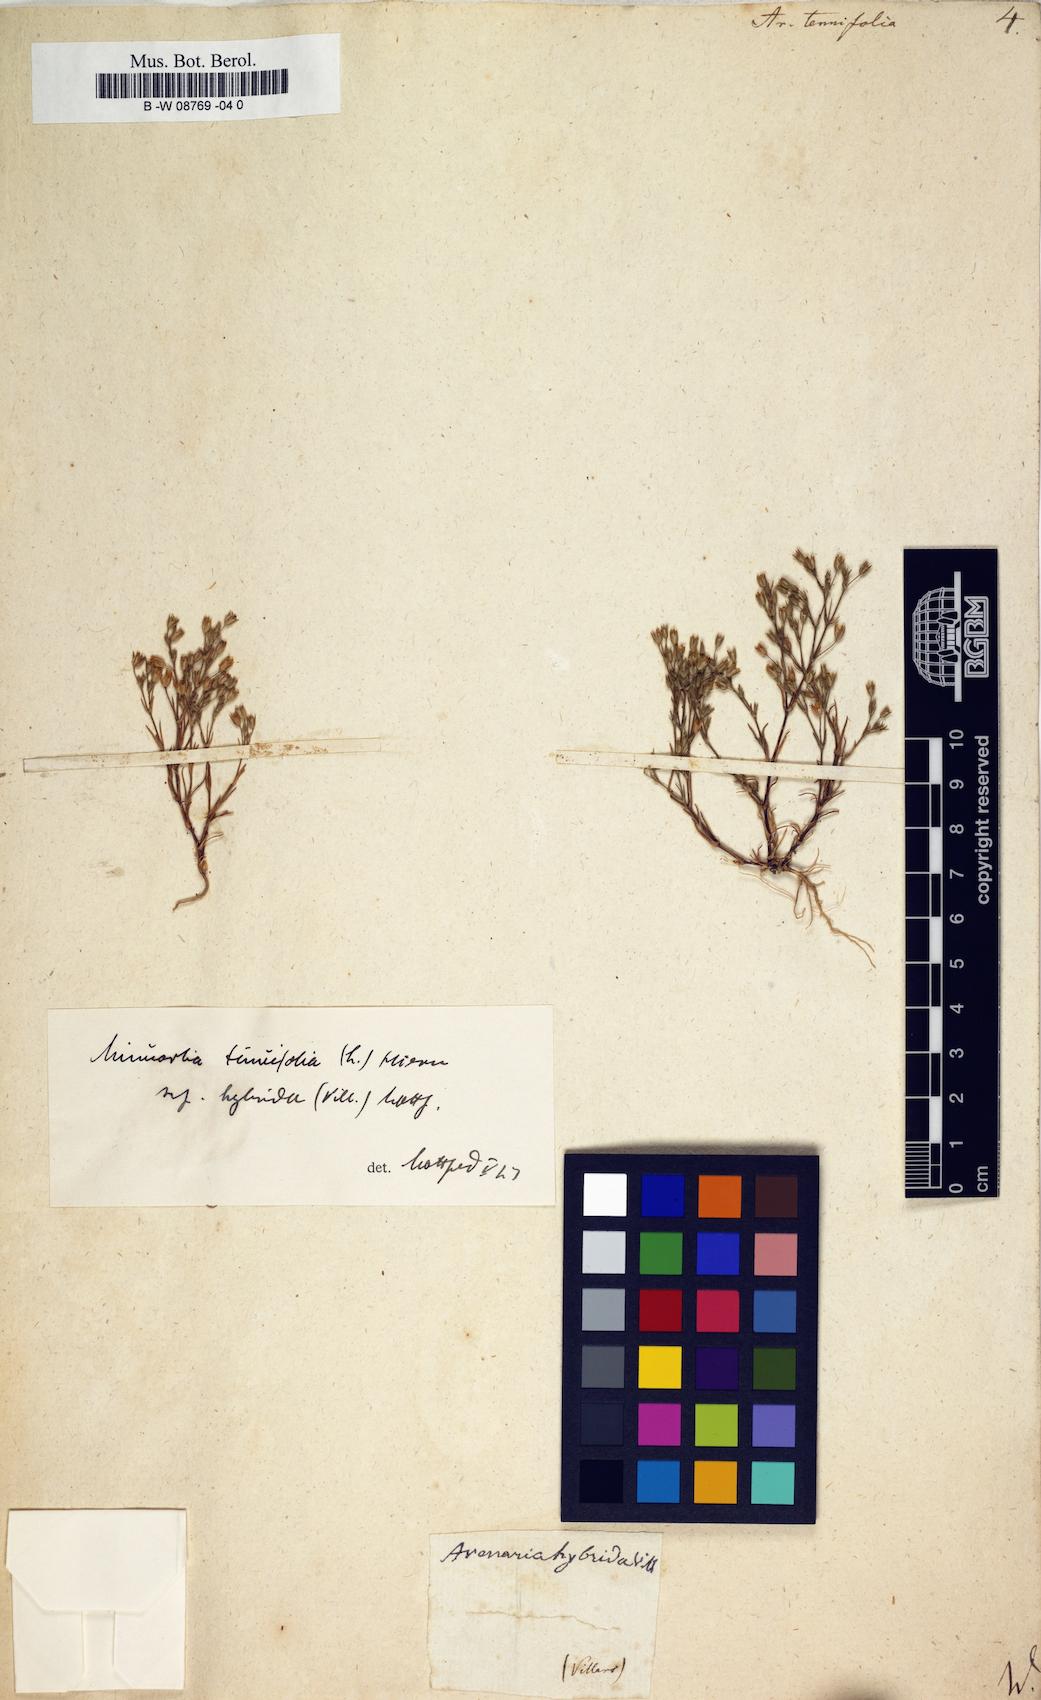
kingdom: Plantae
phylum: Tracheophyta
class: Magnoliopsida
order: Caryophyllales
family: Caryophyllaceae
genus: Sabulina
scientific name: Sabulina tenuifolia
